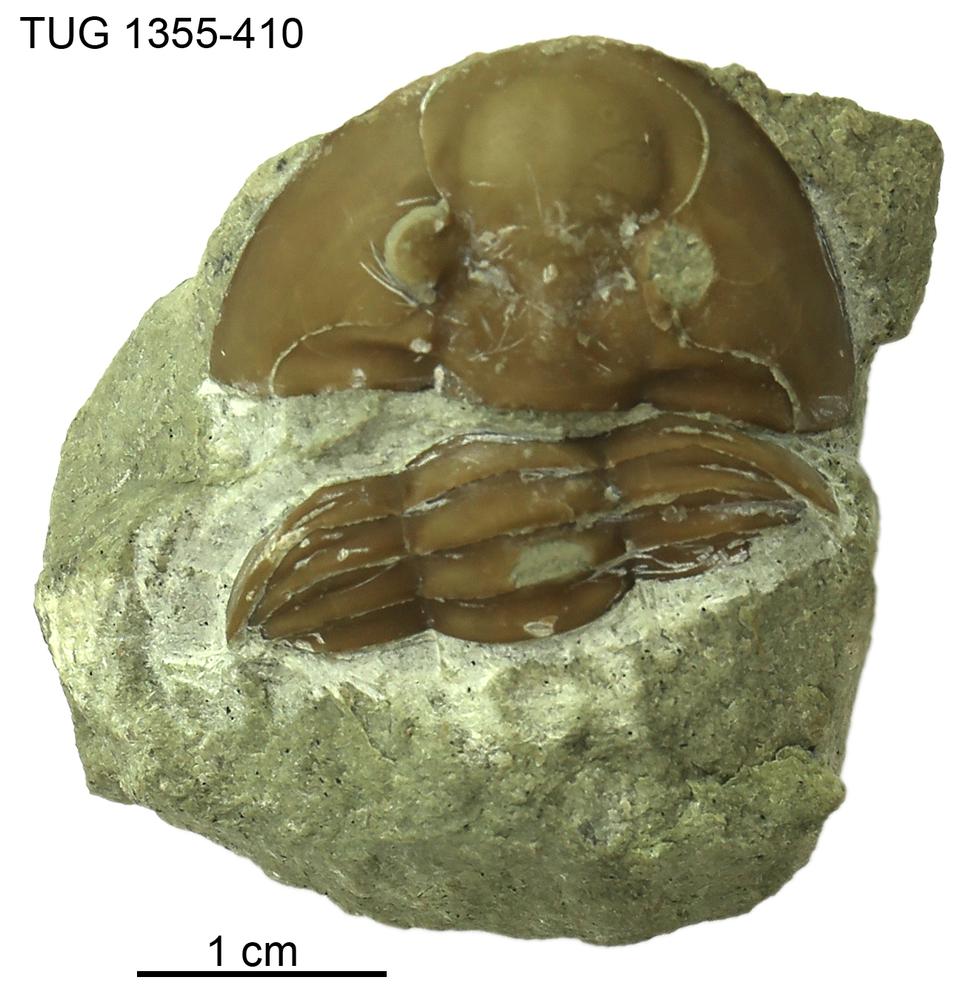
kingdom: Animalia
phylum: Arthropoda
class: Trilobita
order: Asaphida
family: Asaphidae
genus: Paraptychopyge
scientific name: Paraptychopyge
